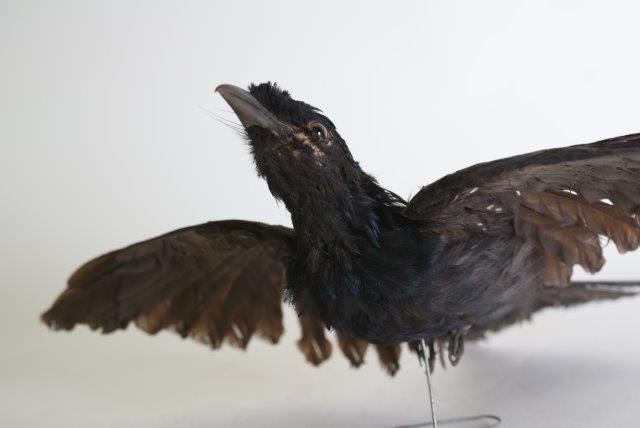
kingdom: Animalia
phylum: Chordata
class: Aves
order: Passeriformes
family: Dicruridae
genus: Dicrurus
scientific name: Dicrurus paradiseus
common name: Greater racket-tailed drongo
